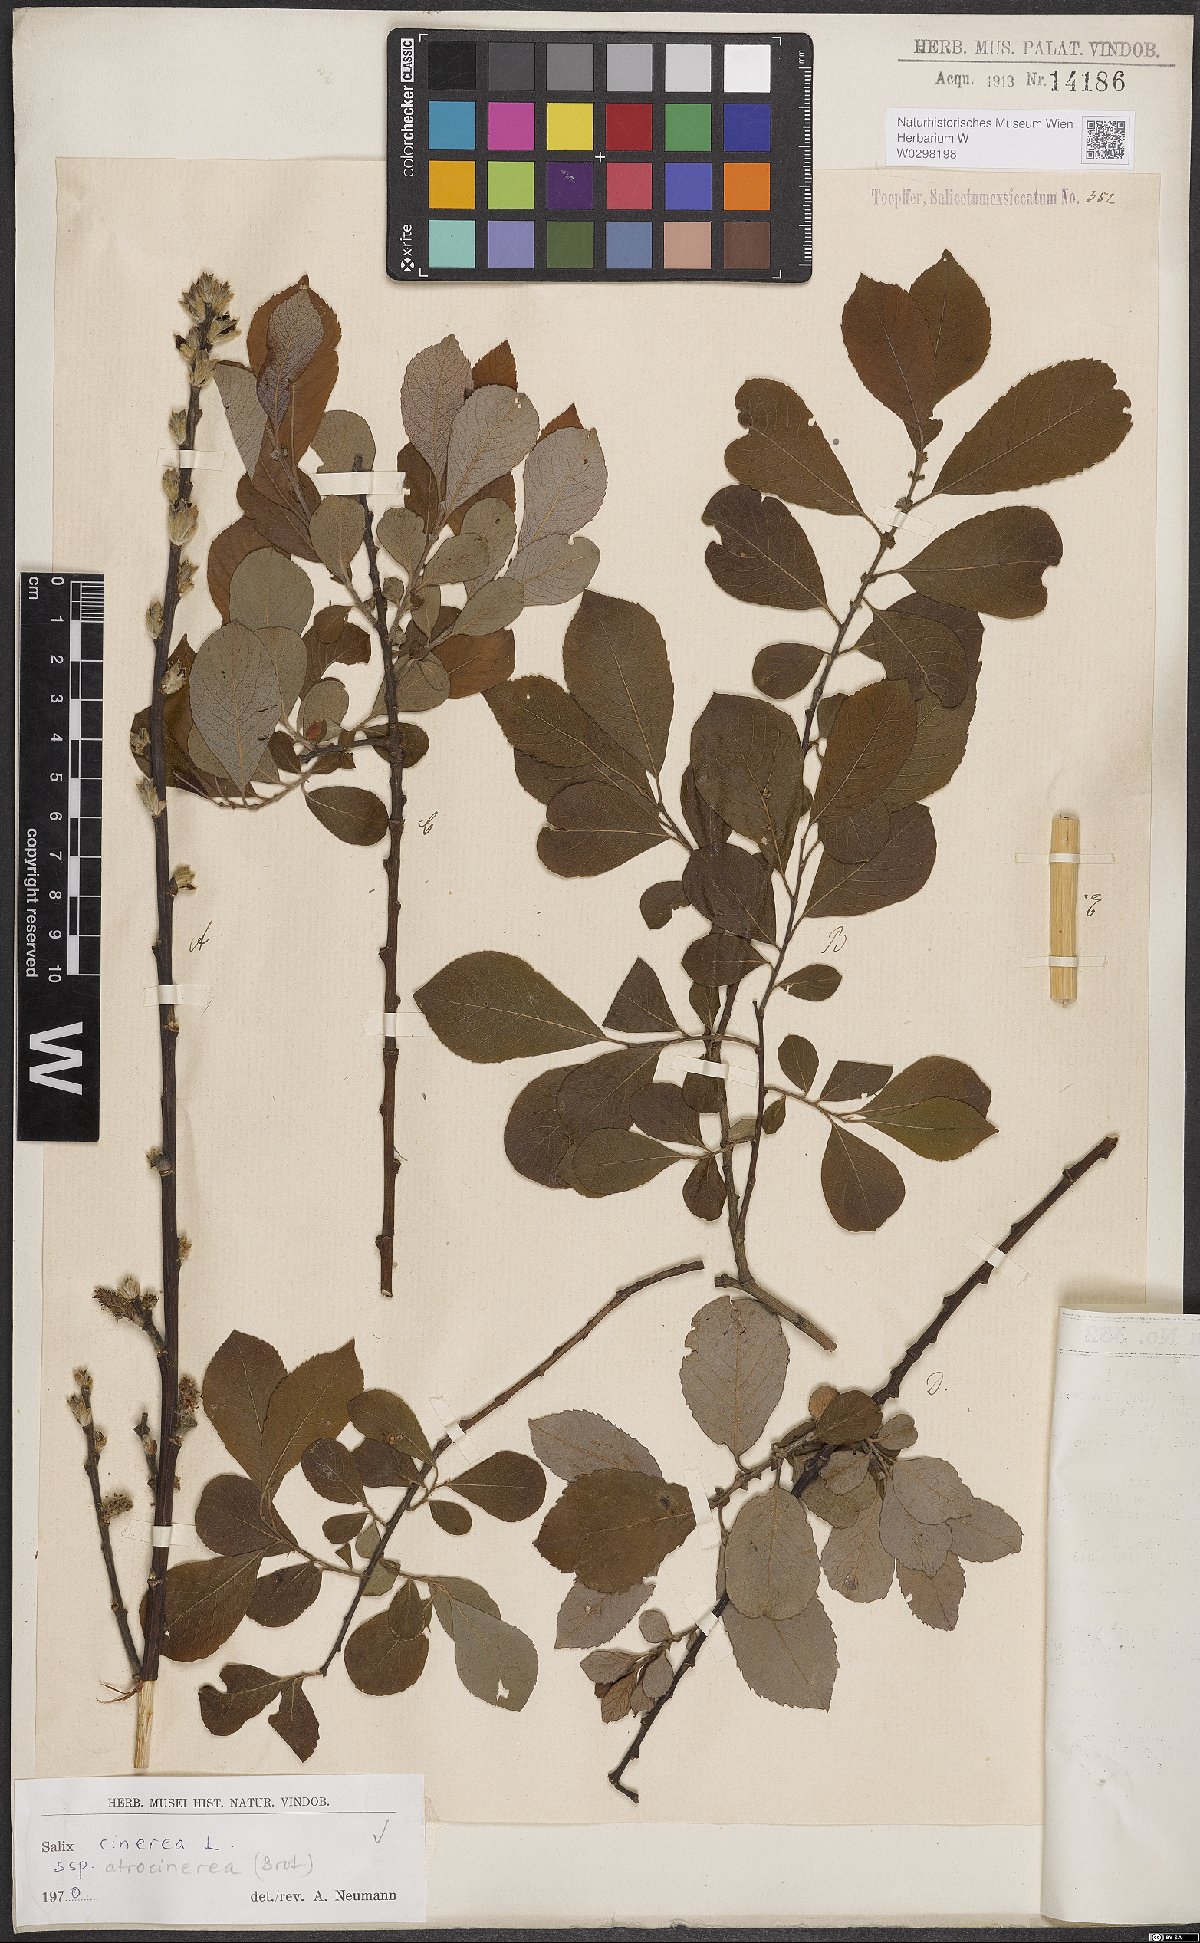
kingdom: Plantae
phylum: Tracheophyta
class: Magnoliopsida
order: Malpighiales
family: Salicaceae
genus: Salix
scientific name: Salix atrocinerea
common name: Rusty willow
